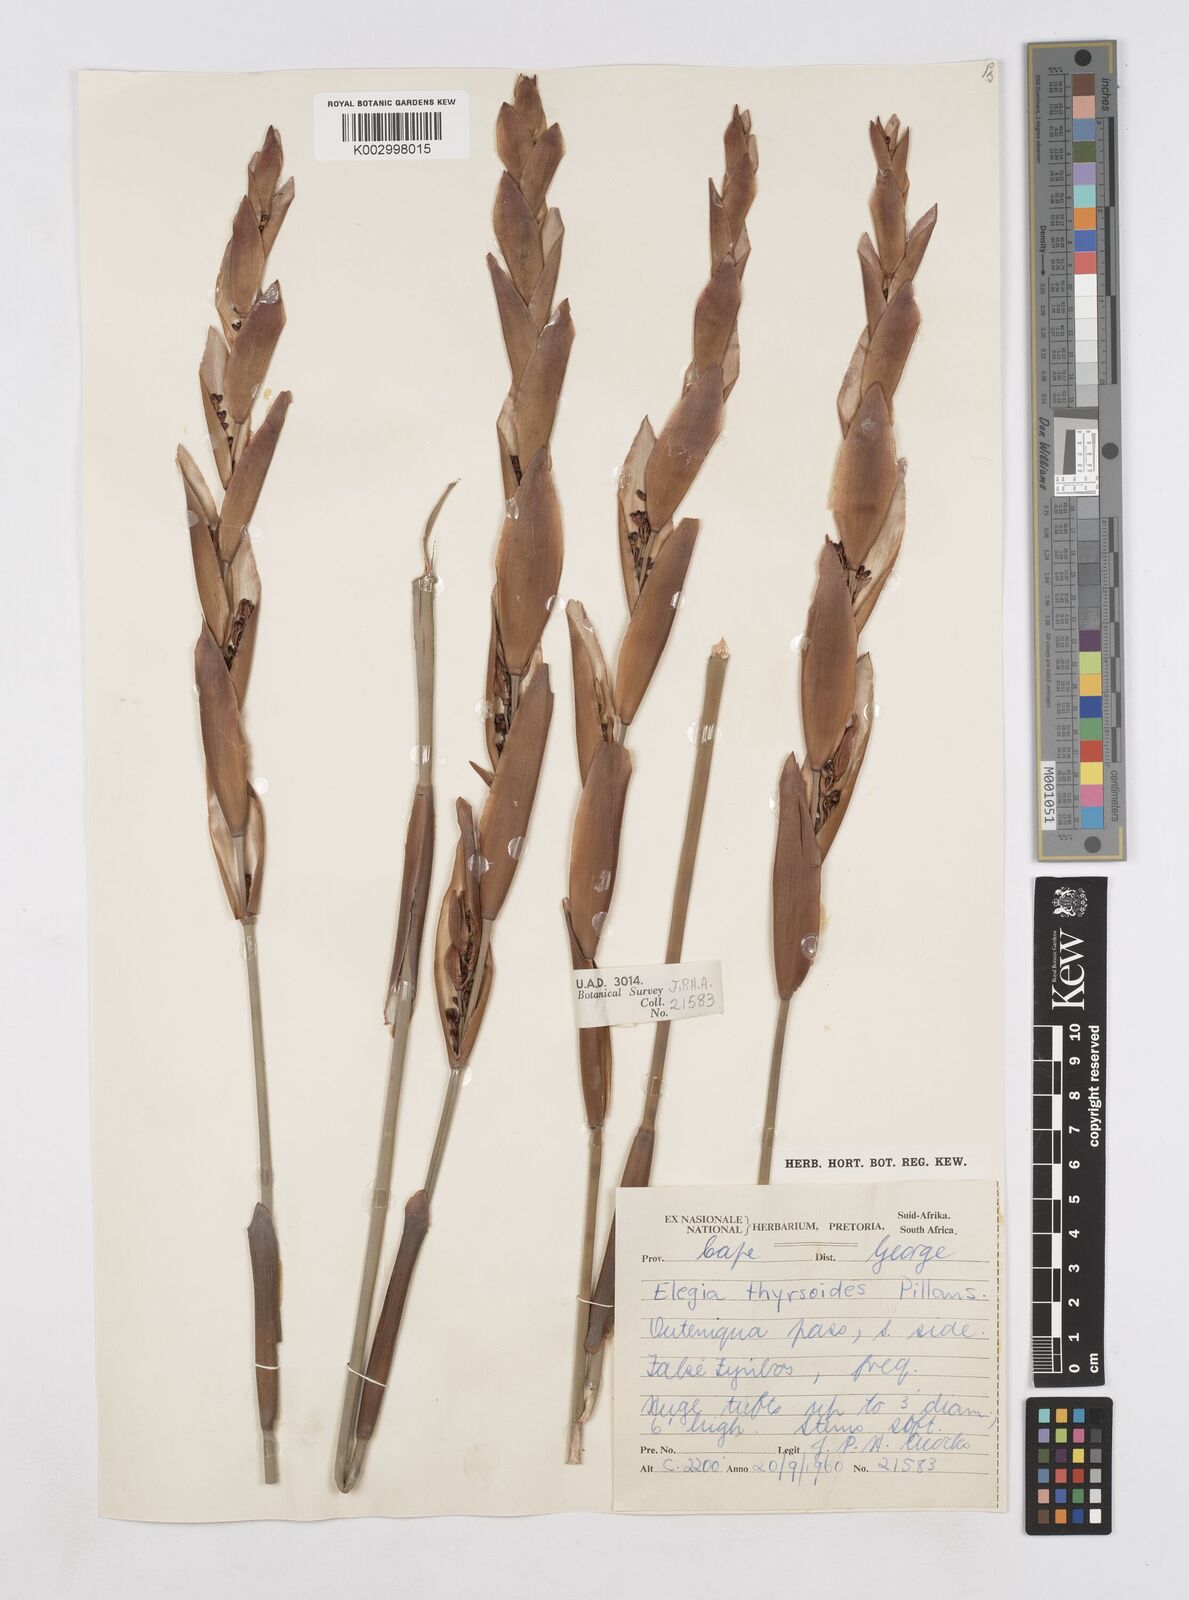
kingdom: Plantae
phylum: Tracheophyta
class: Liliopsida
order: Poales
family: Restionaceae
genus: Elegia
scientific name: Elegia thyrsoidea
